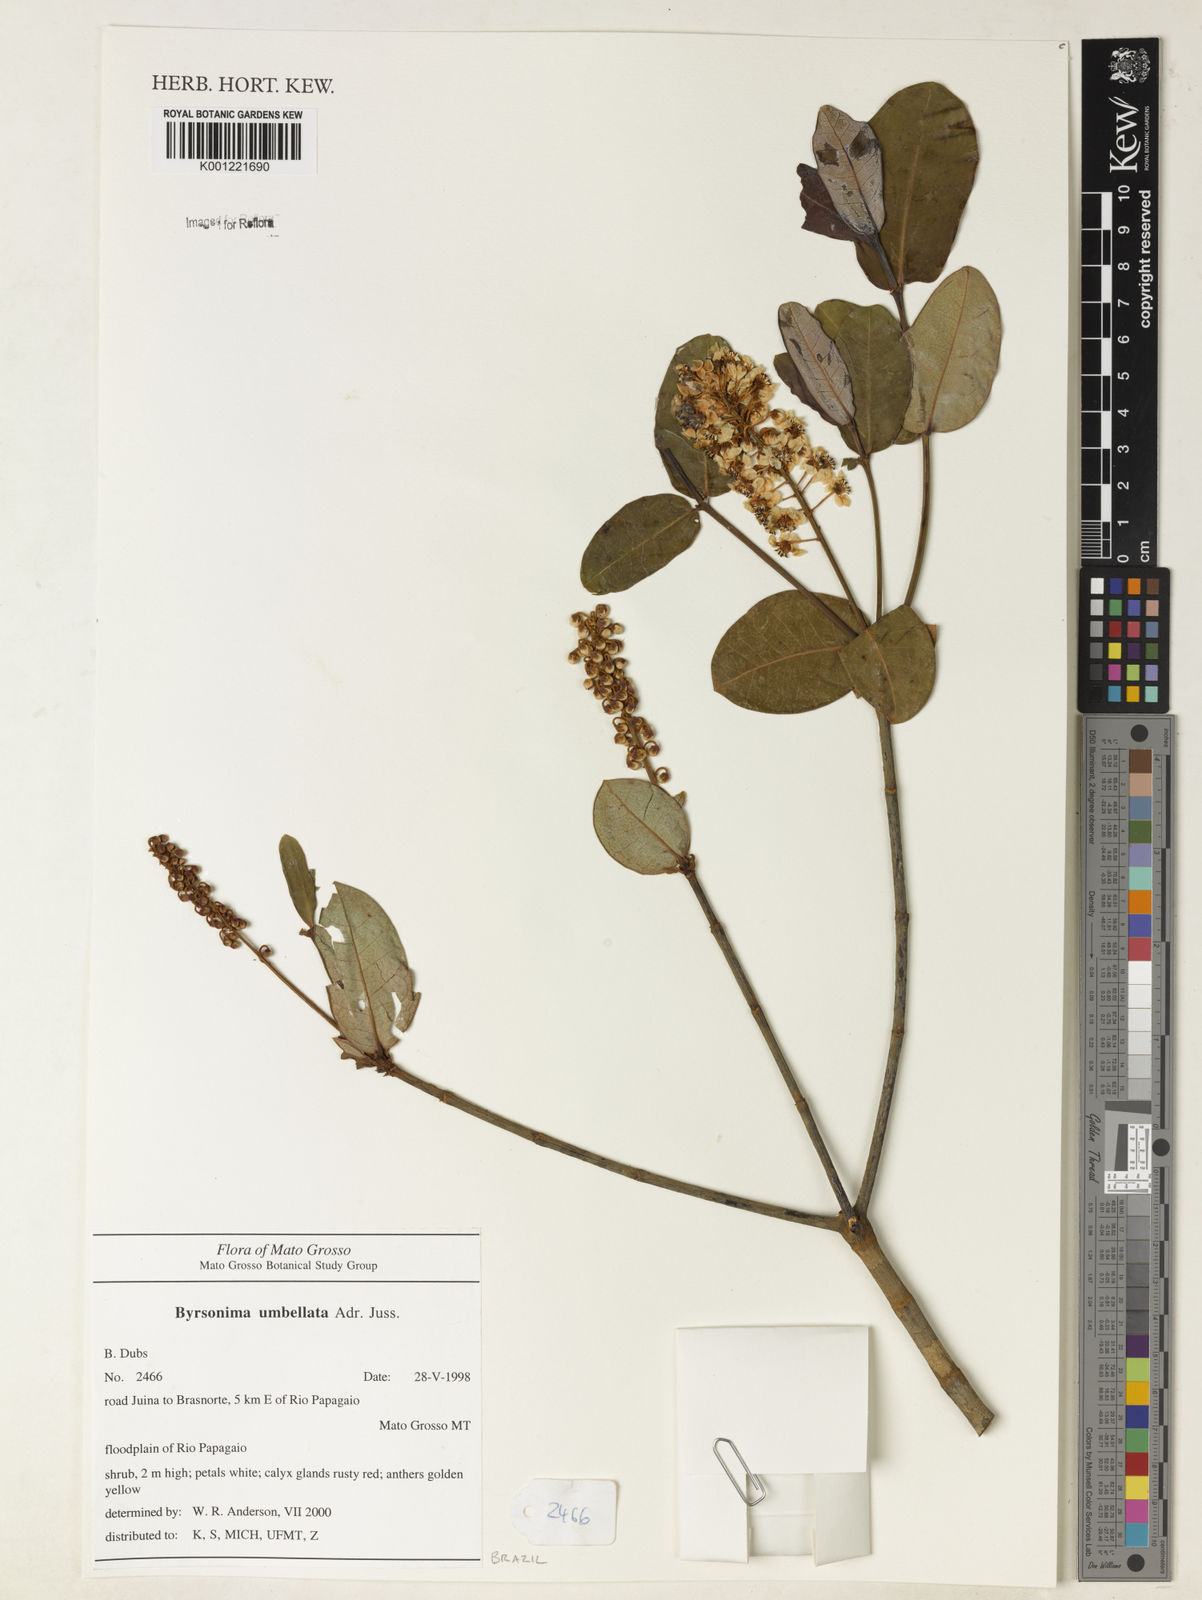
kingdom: Plantae
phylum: Tracheophyta
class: Magnoliopsida
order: Malpighiales
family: Malpighiaceae
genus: Byrsonima
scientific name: Byrsonima umbellata
